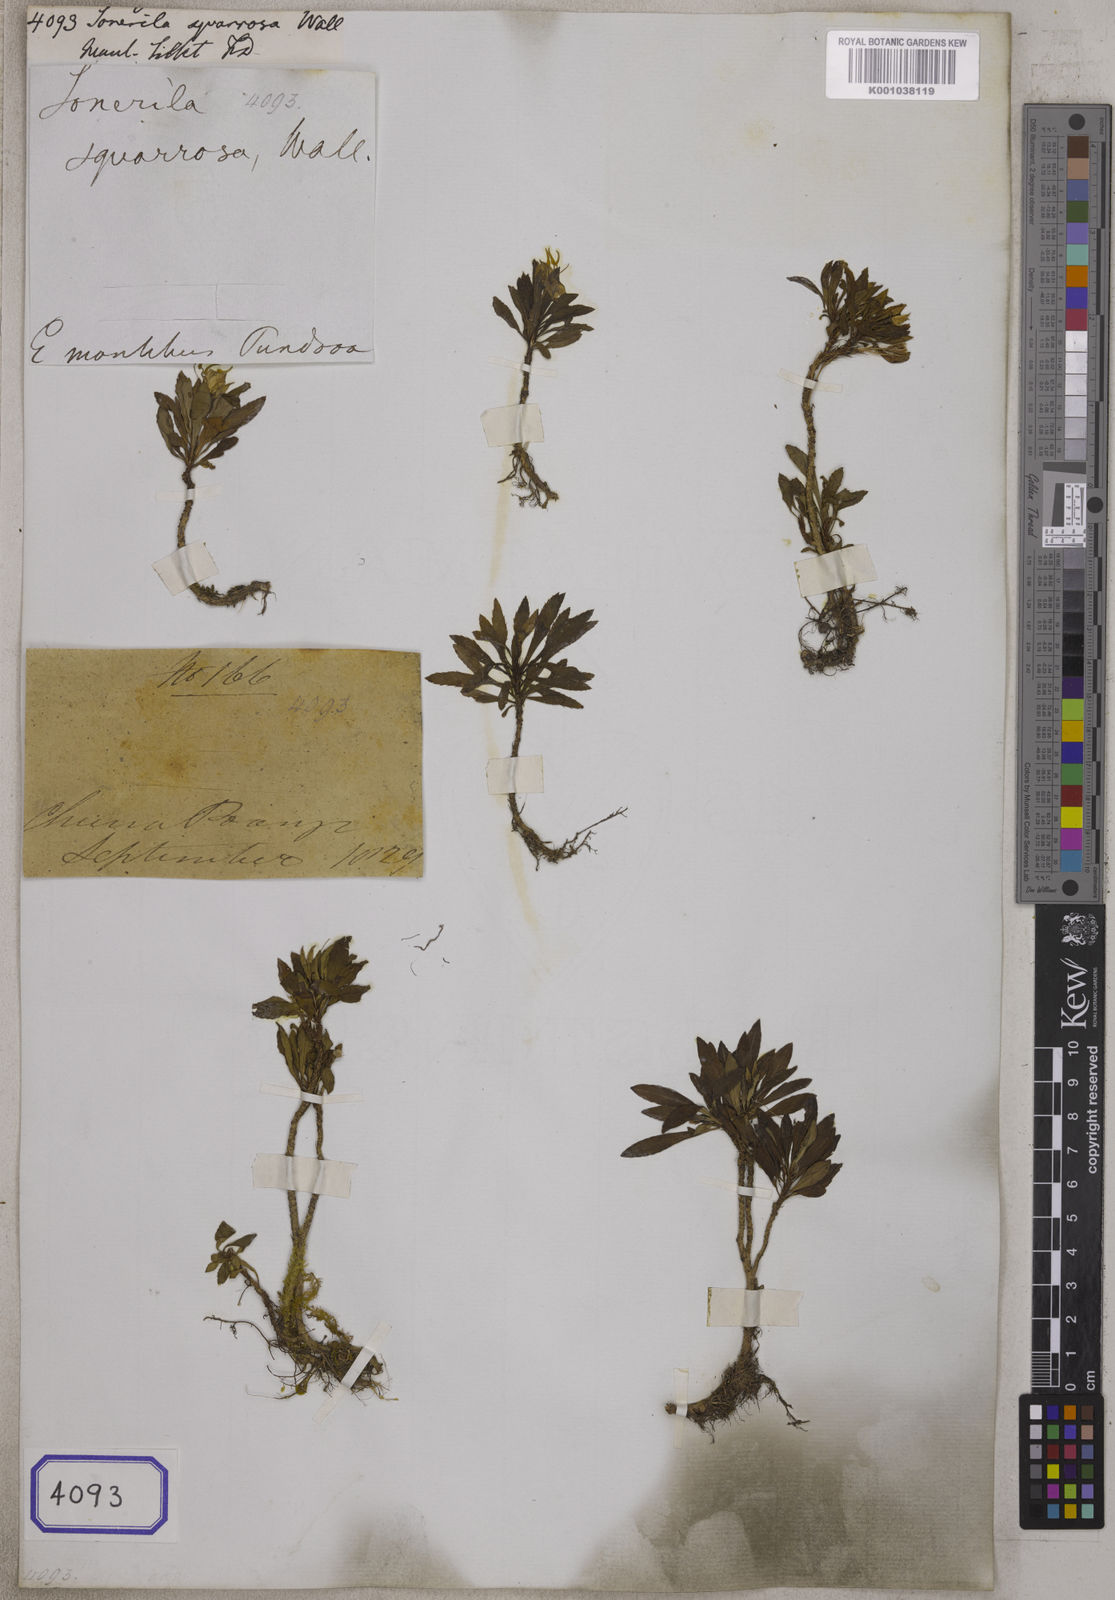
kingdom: Plantae
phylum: Tracheophyta
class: Magnoliopsida
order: Myrtales
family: Melastomataceae
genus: Sonerila
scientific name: Sonerila squarrosa
